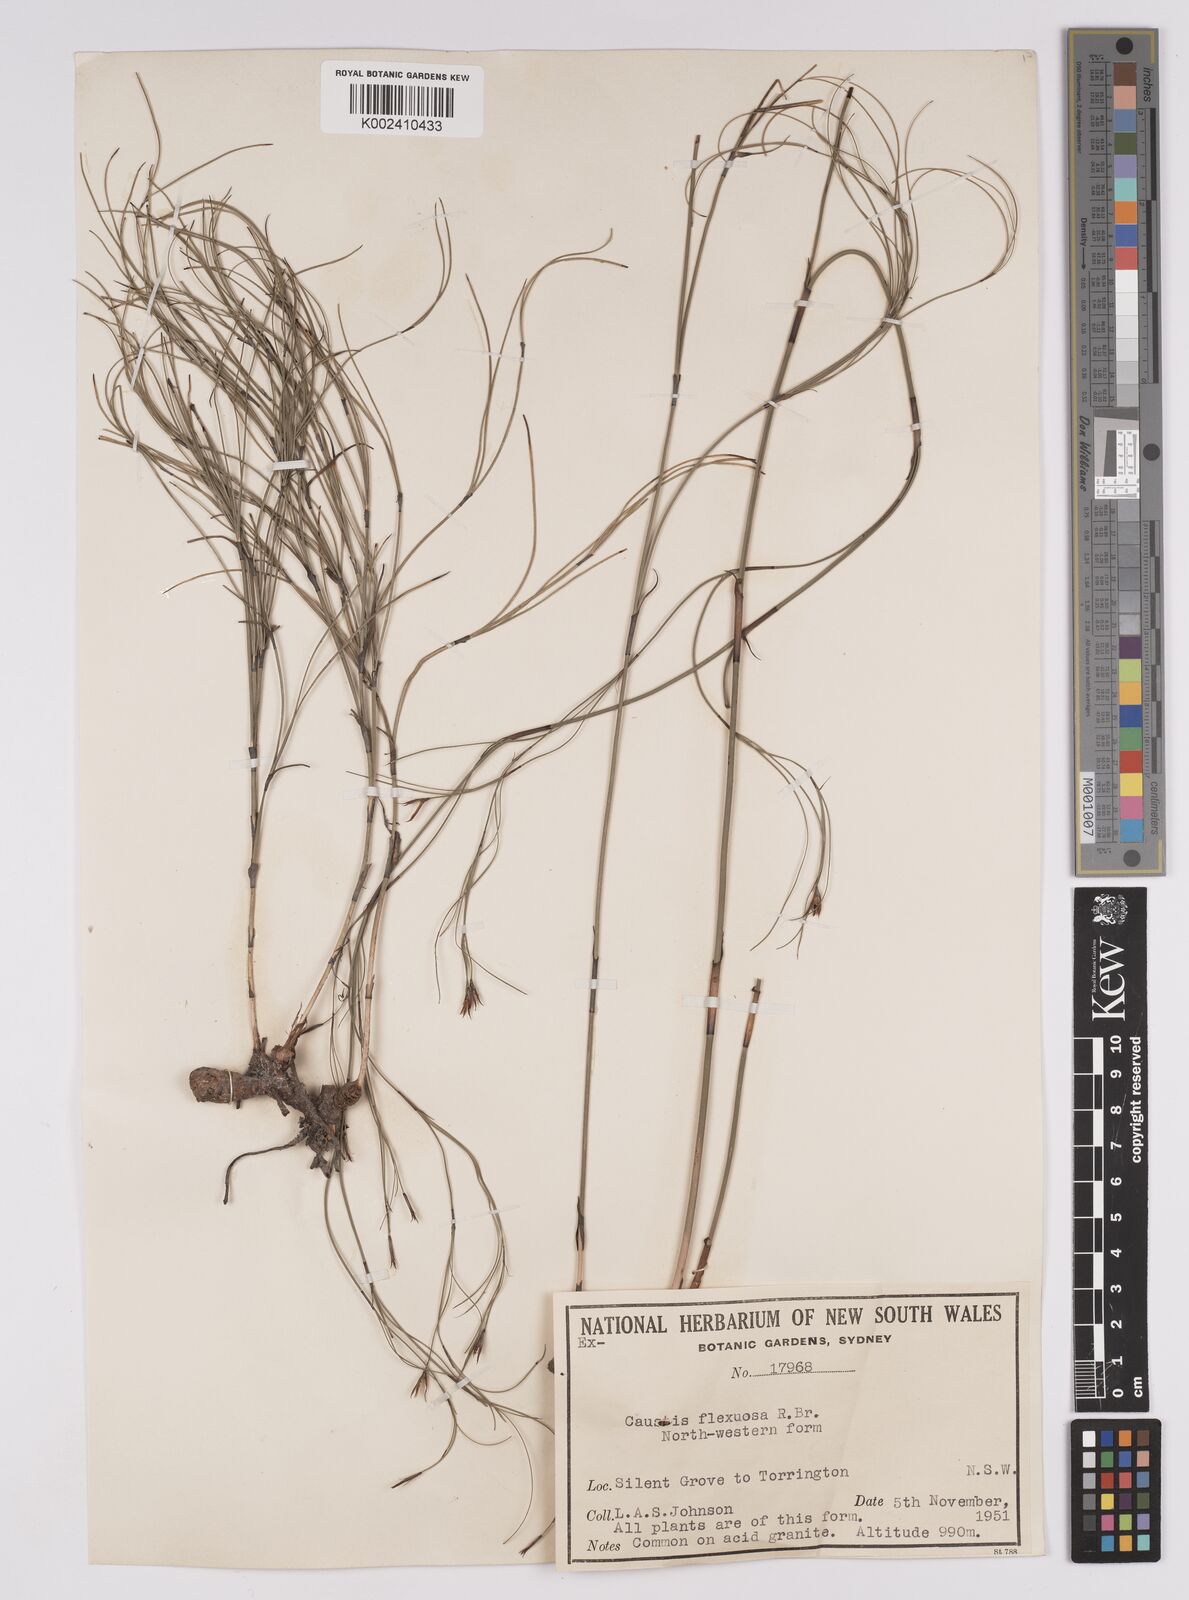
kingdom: Plantae
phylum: Tracheophyta
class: Liliopsida
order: Poales
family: Cyperaceae
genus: Caustis
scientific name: Caustis flexuosa
